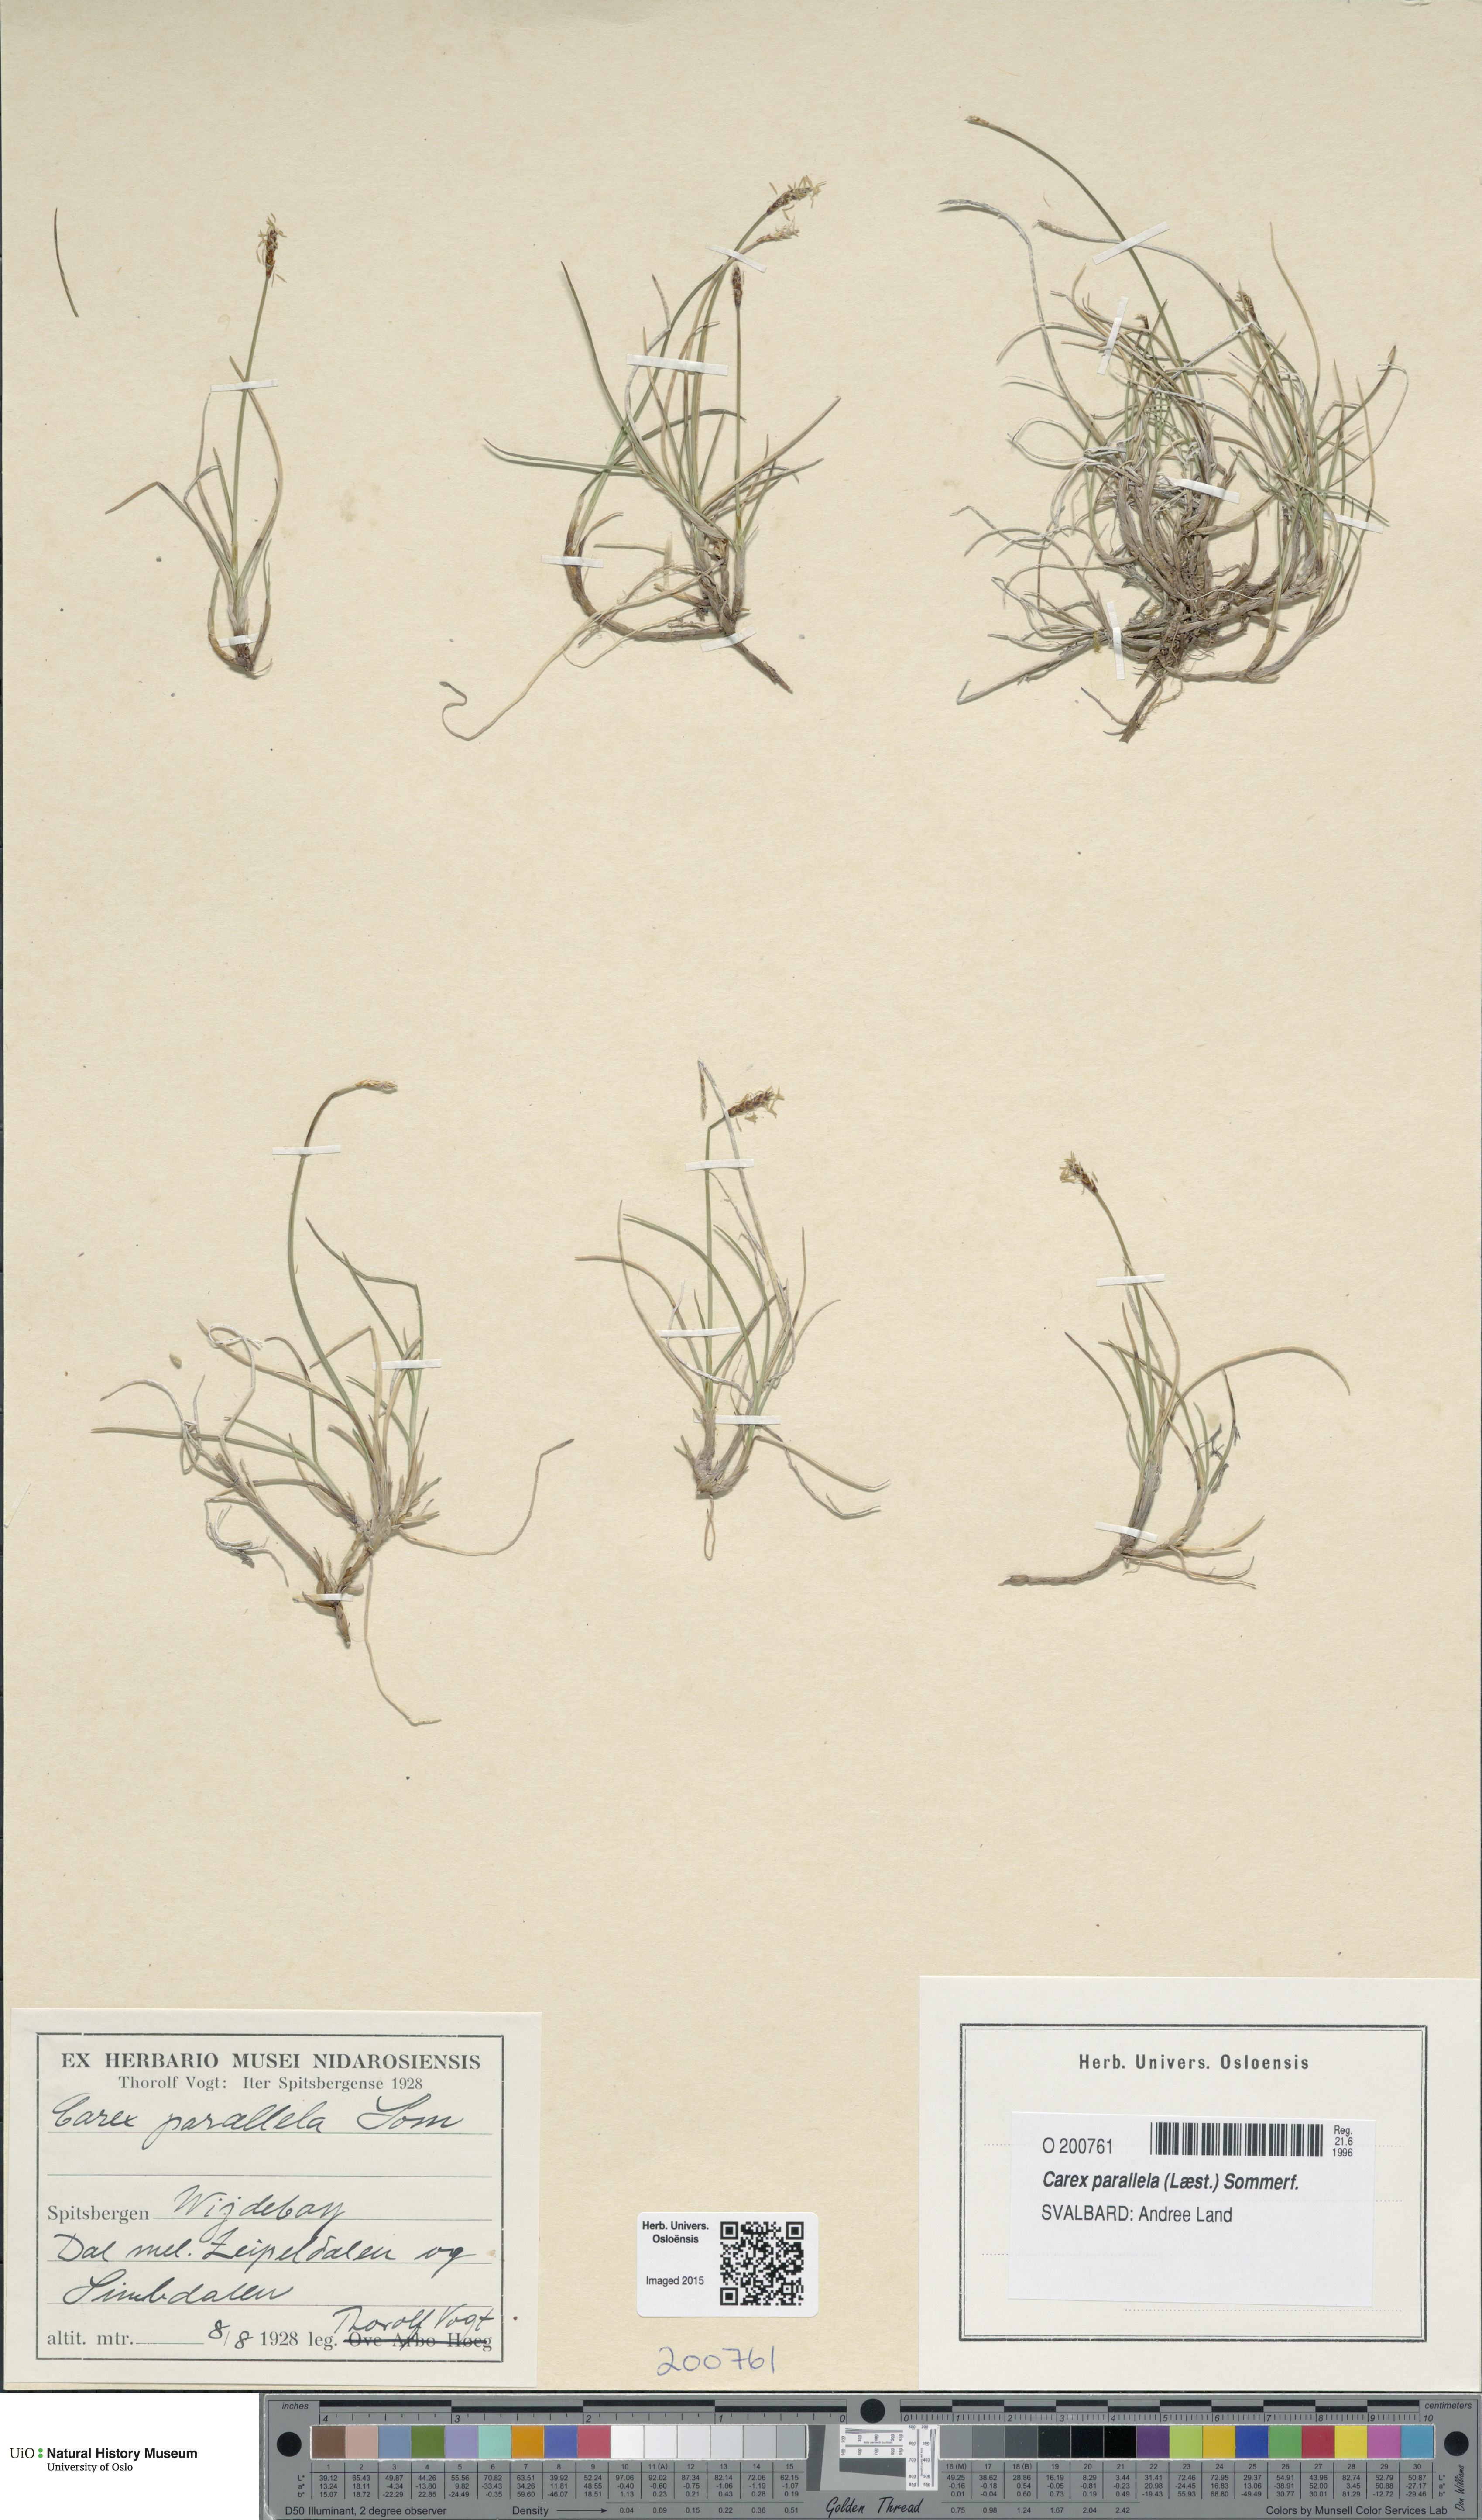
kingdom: Plantae
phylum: Tracheophyta
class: Liliopsida
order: Poales
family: Cyperaceae
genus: Carex
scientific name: Carex parallela
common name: Parallel sedge
